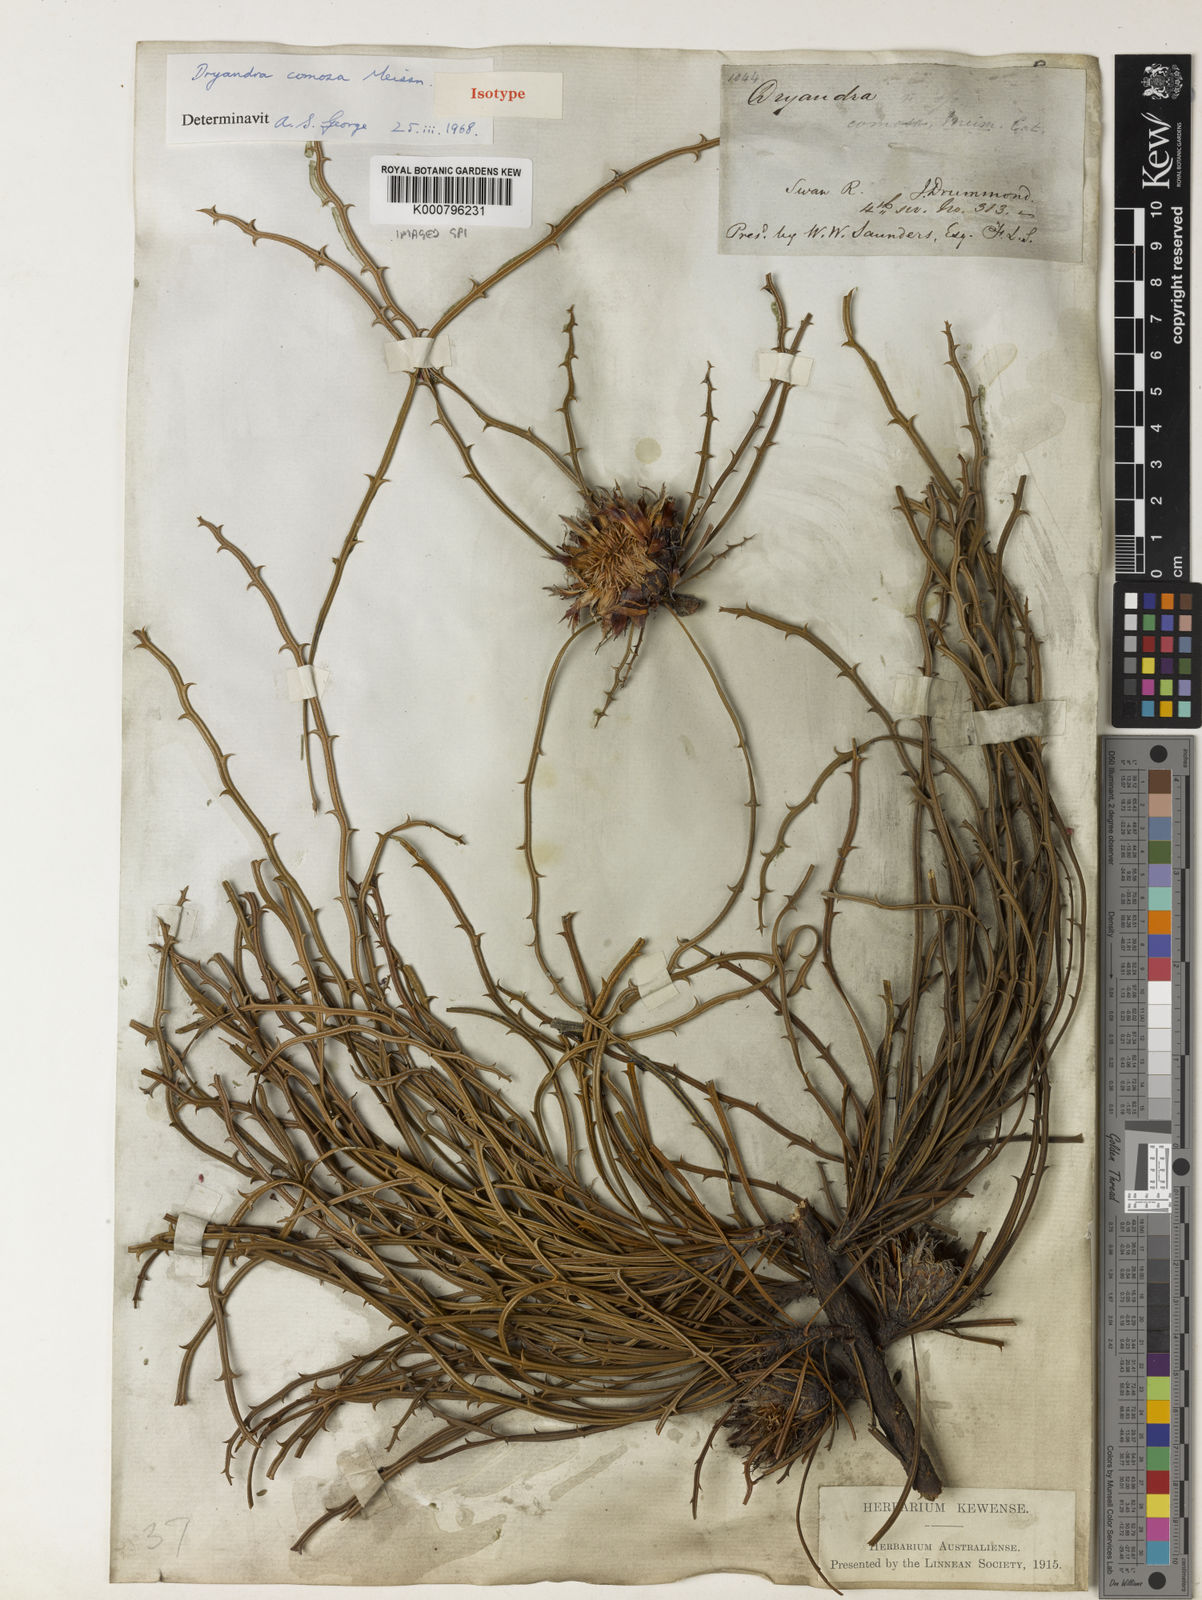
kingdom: Plantae
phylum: Tracheophyta
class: Magnoliopsida
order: Proteales
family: Proteaceae
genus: Banksia
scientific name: Banksia comosa
